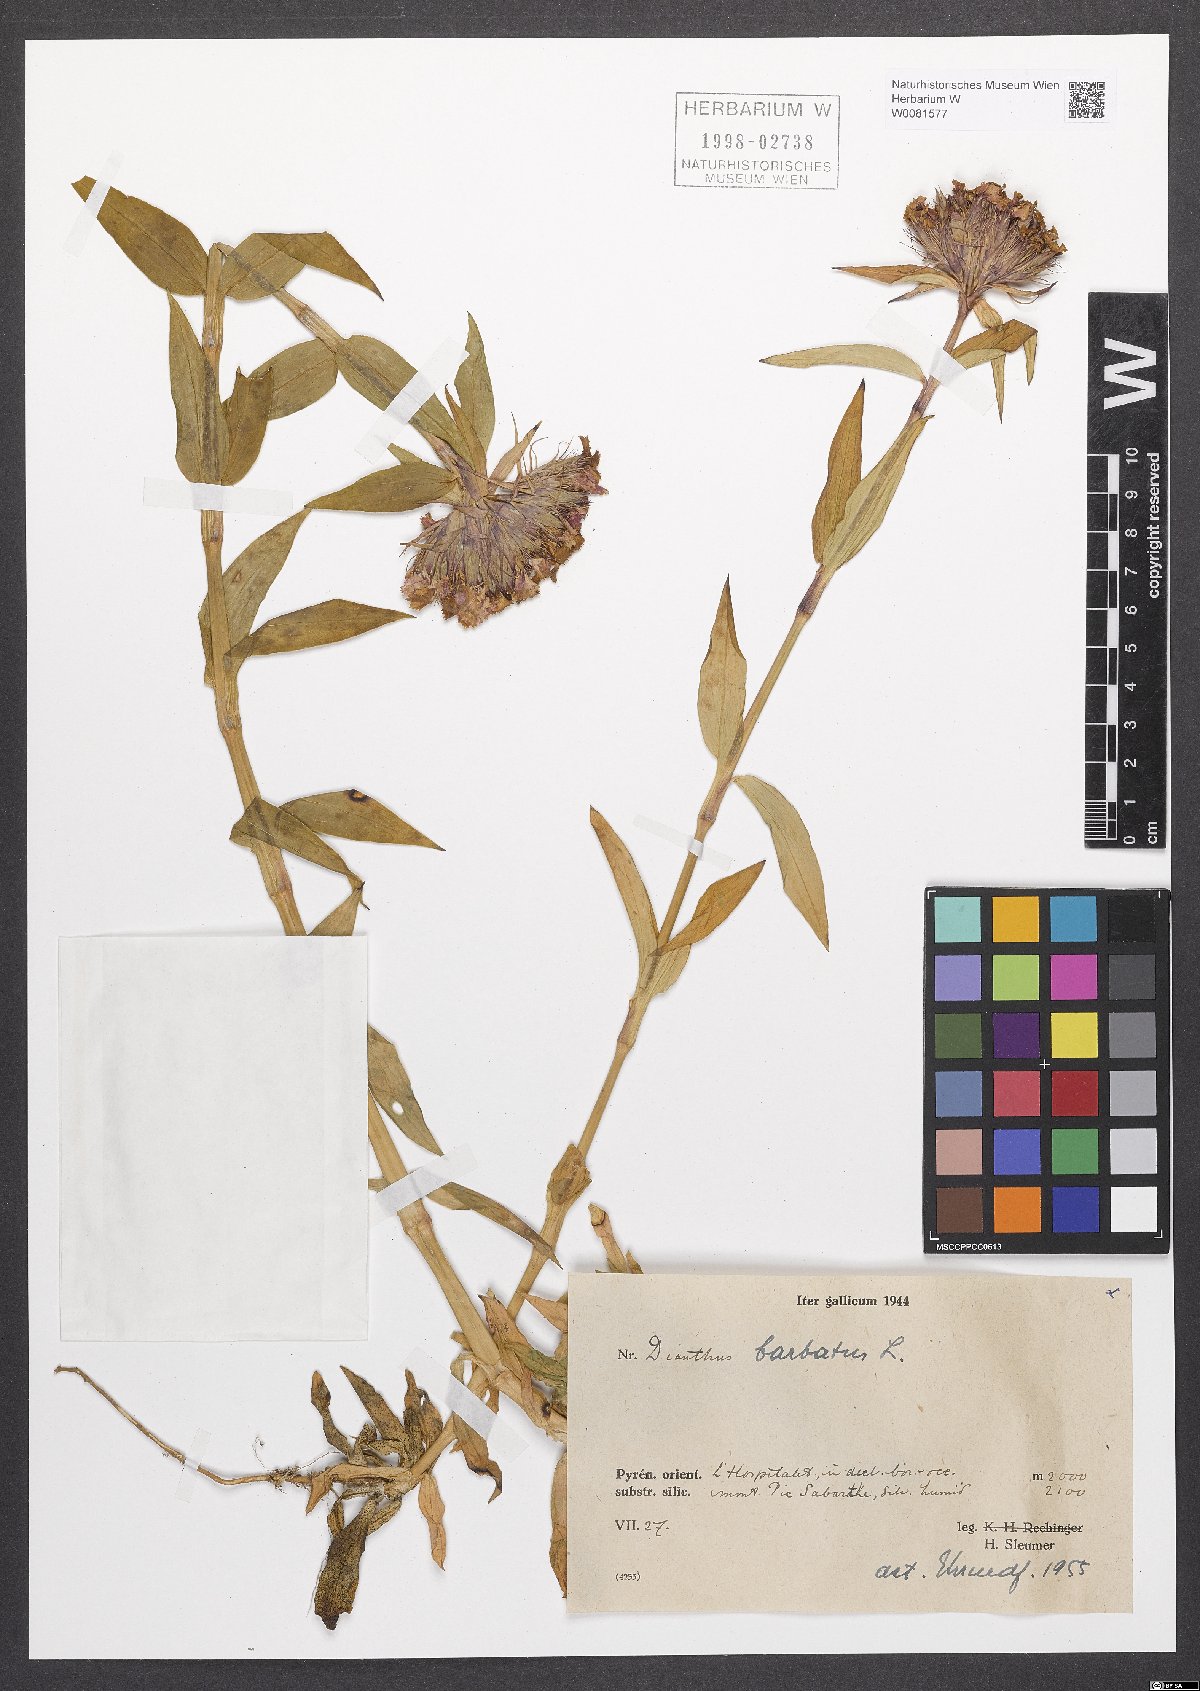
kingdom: Plantae
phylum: Tracheophyta
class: Magnoliopsida
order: Caryophyllales
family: Caryophyllaceae
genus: Dianthus
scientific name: Dianthus barbatus
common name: Sweet-william
